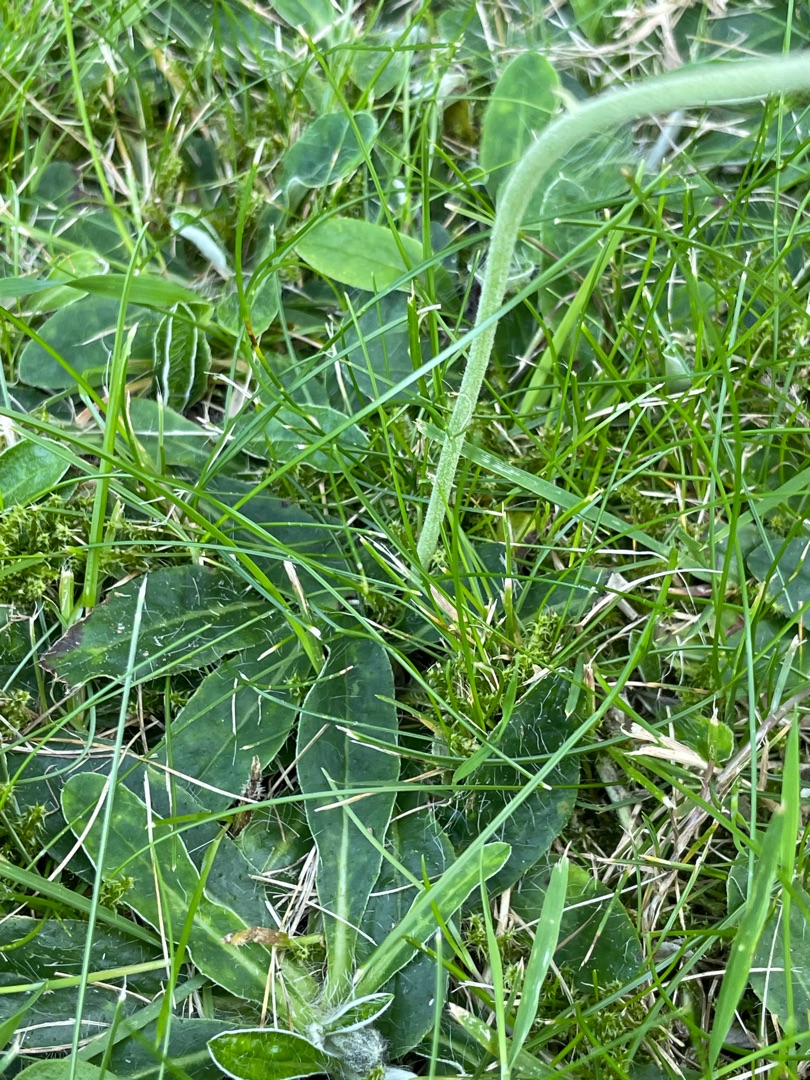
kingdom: Plantae
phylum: Tracheophyta
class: Magnoliopsida
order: Asterales
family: Asteraceae
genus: Pilosella
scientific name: Pilosella officinarum
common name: Håret høgeurt
